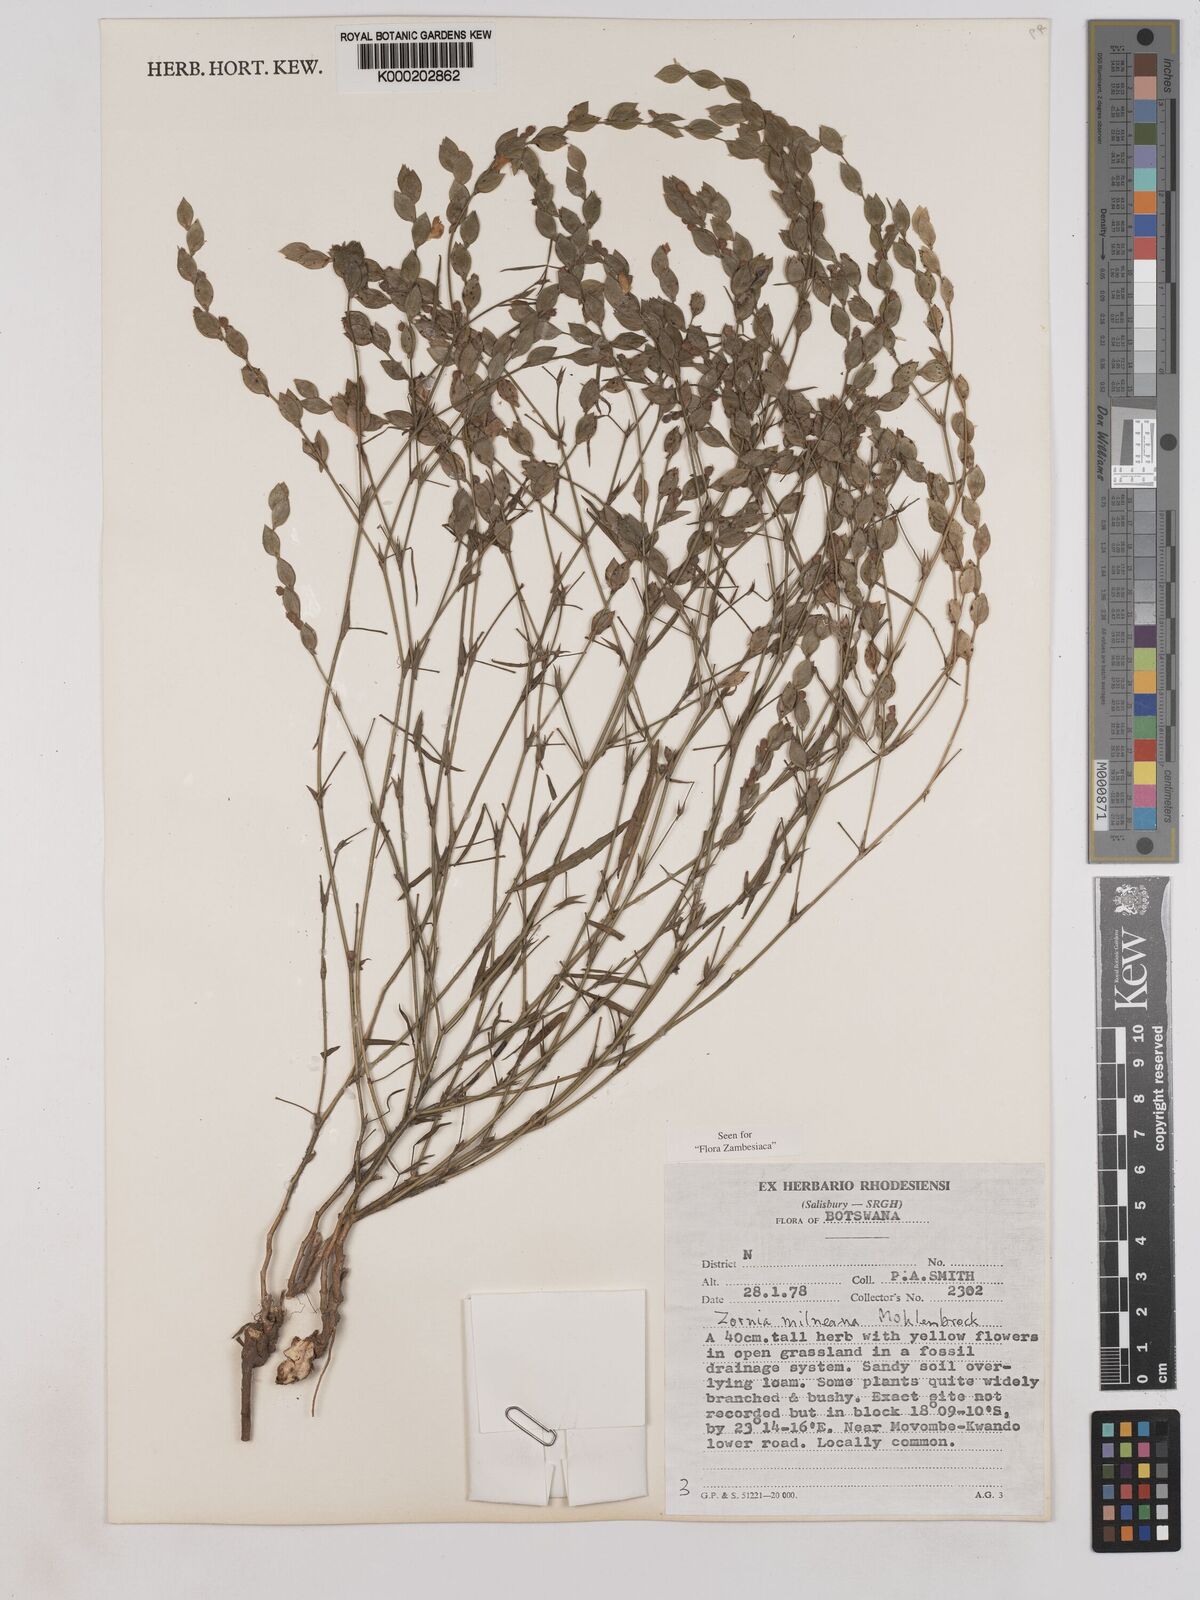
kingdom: Plantae
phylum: Tracheophyta
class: Magnoliopsida
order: Fabales
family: Fabaceae
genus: Zornia
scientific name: Zornia milneana
